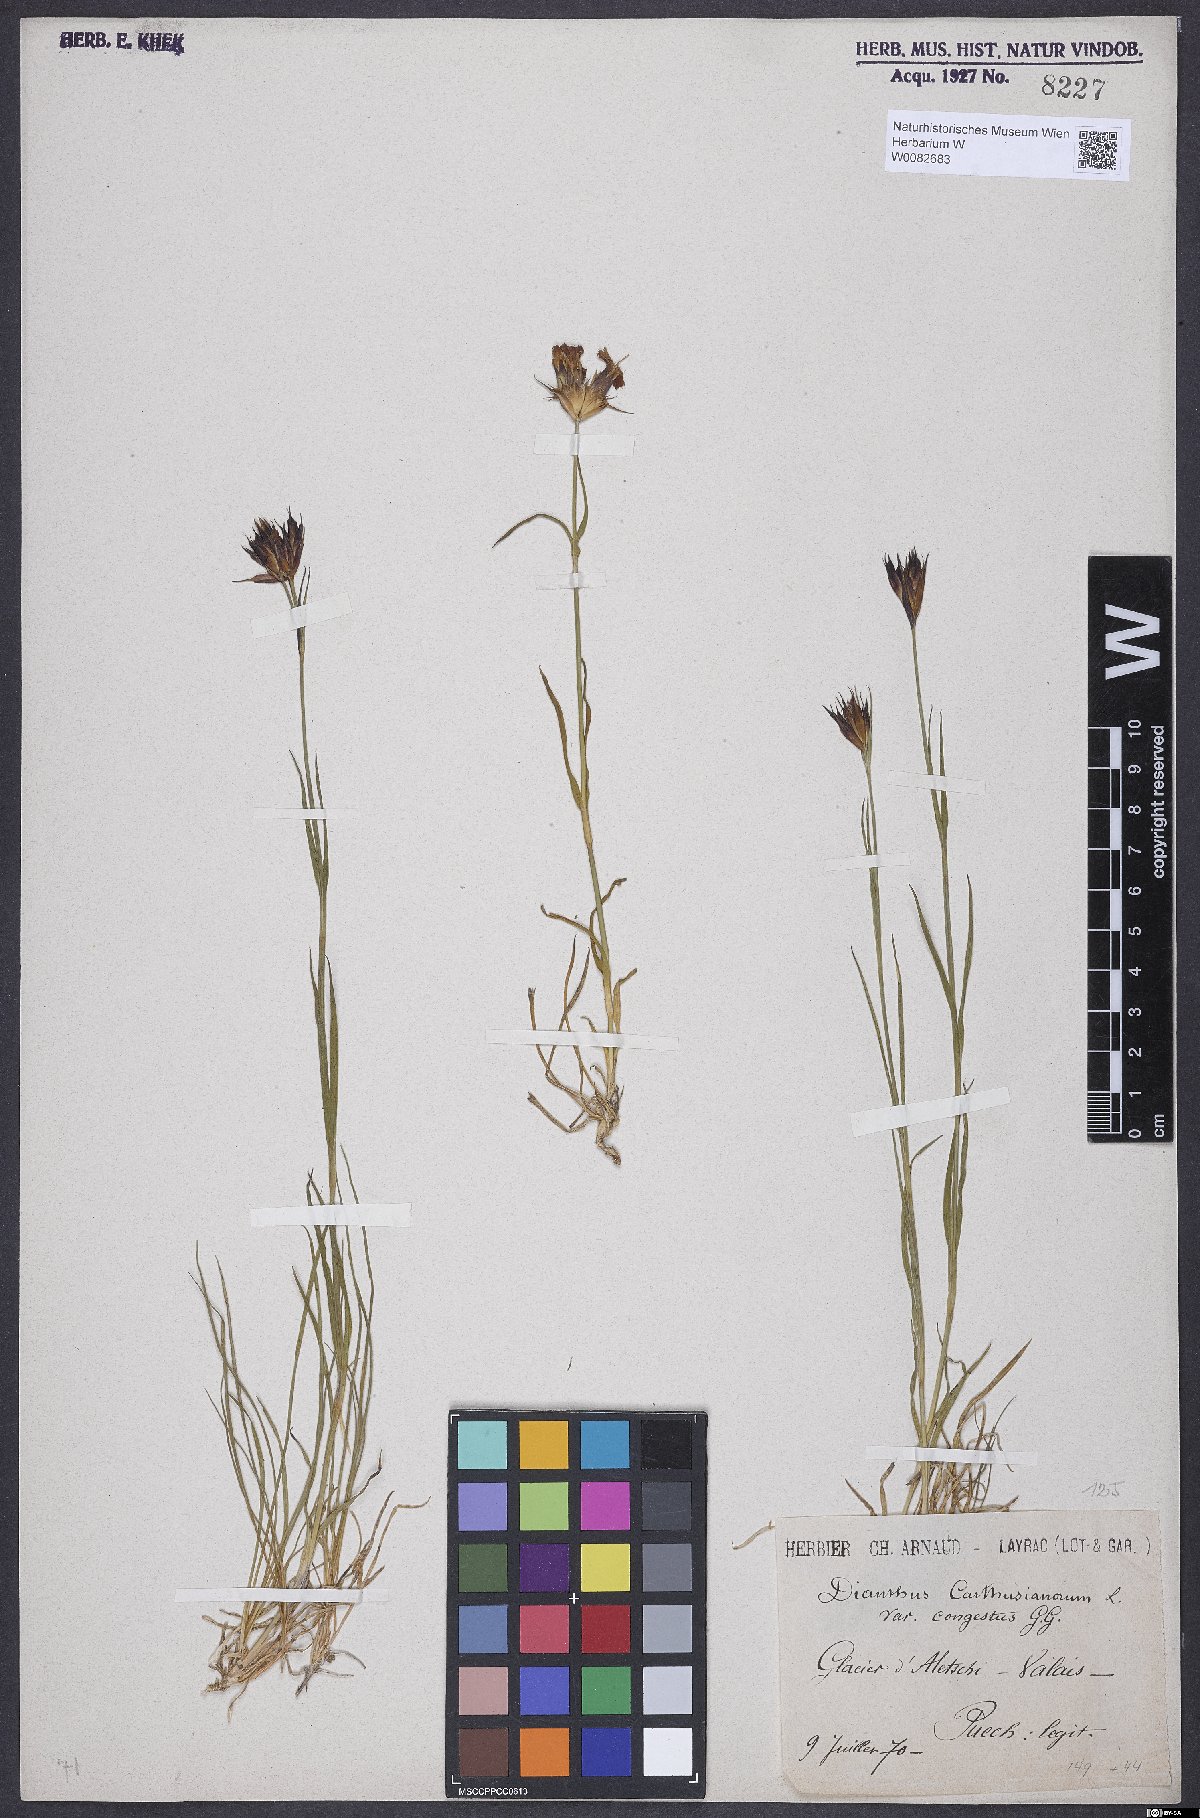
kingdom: Plantae
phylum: Tracheophyta
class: Magnoliopsida
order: Caryophyllales
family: Caryophyllaceae
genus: Dianthus
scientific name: Dianthus carthusianorum
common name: Carthusian pink
